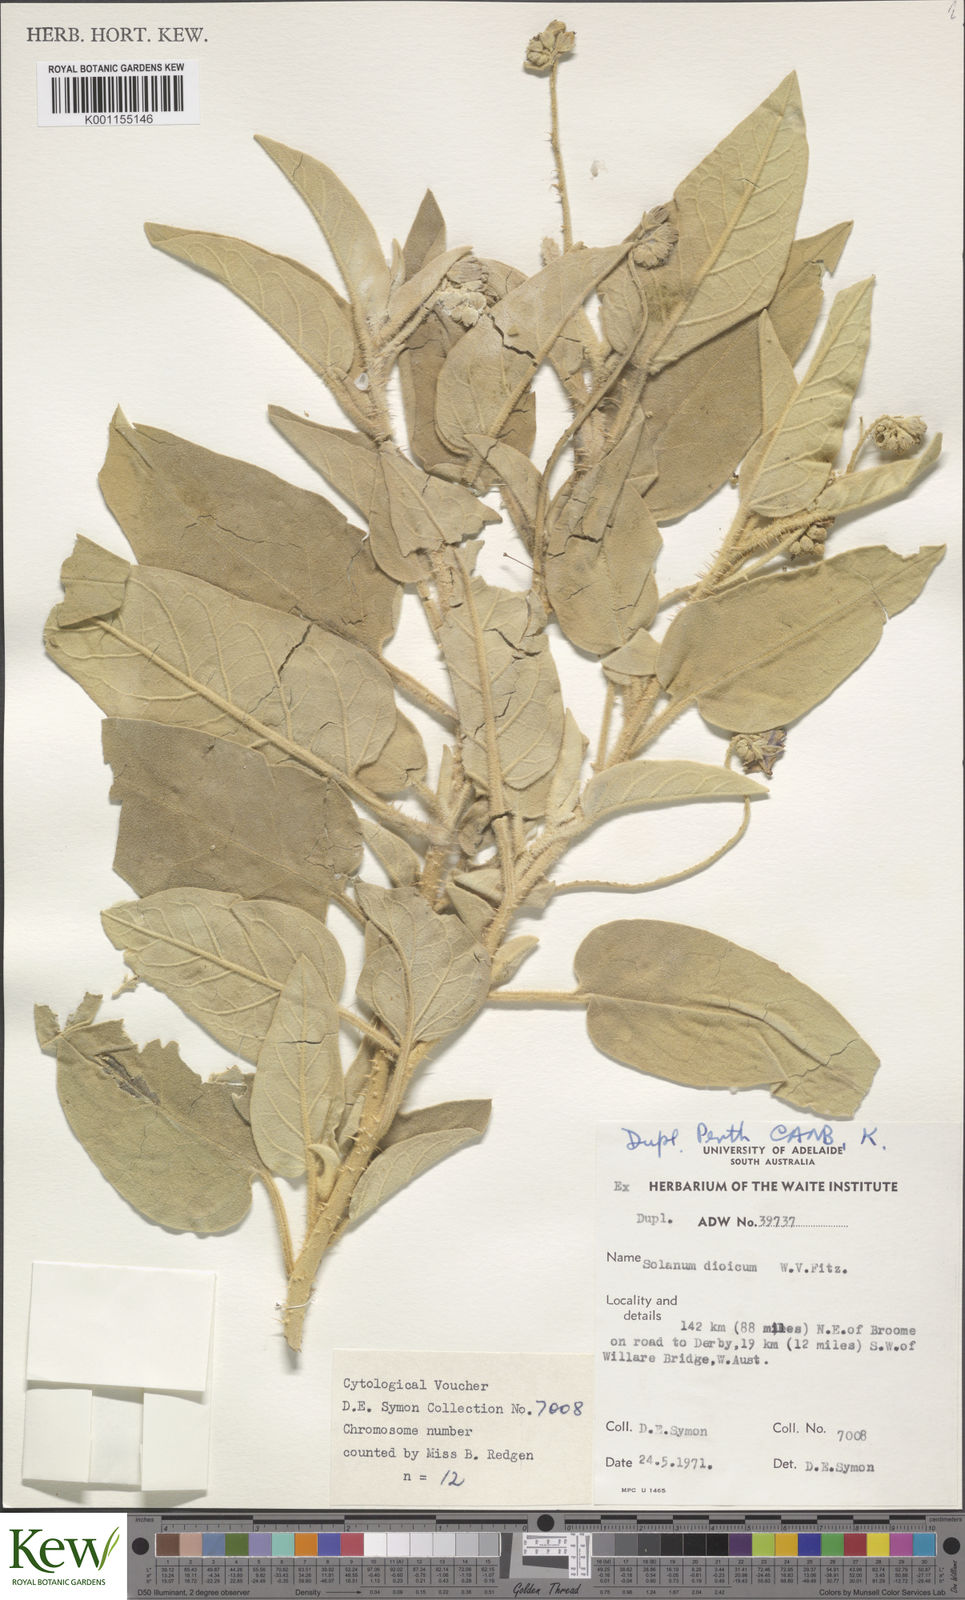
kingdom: Plantae
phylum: Tracheophyta
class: Magnoliopsida
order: Solanales
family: Solanaceae
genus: Solanum
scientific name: Solanum dioicum
